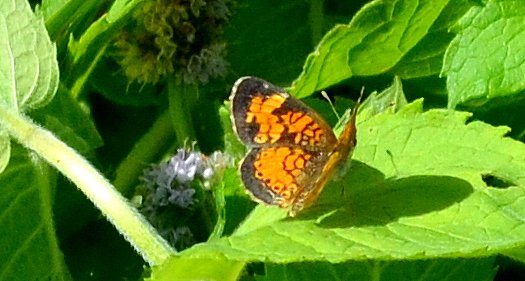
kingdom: Animalia
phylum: Arthropoda
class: Insecta
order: Lepidoptera
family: Nymphalidae
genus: Phyciodes
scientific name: Phyciodes tharos
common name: Northern Crescent
